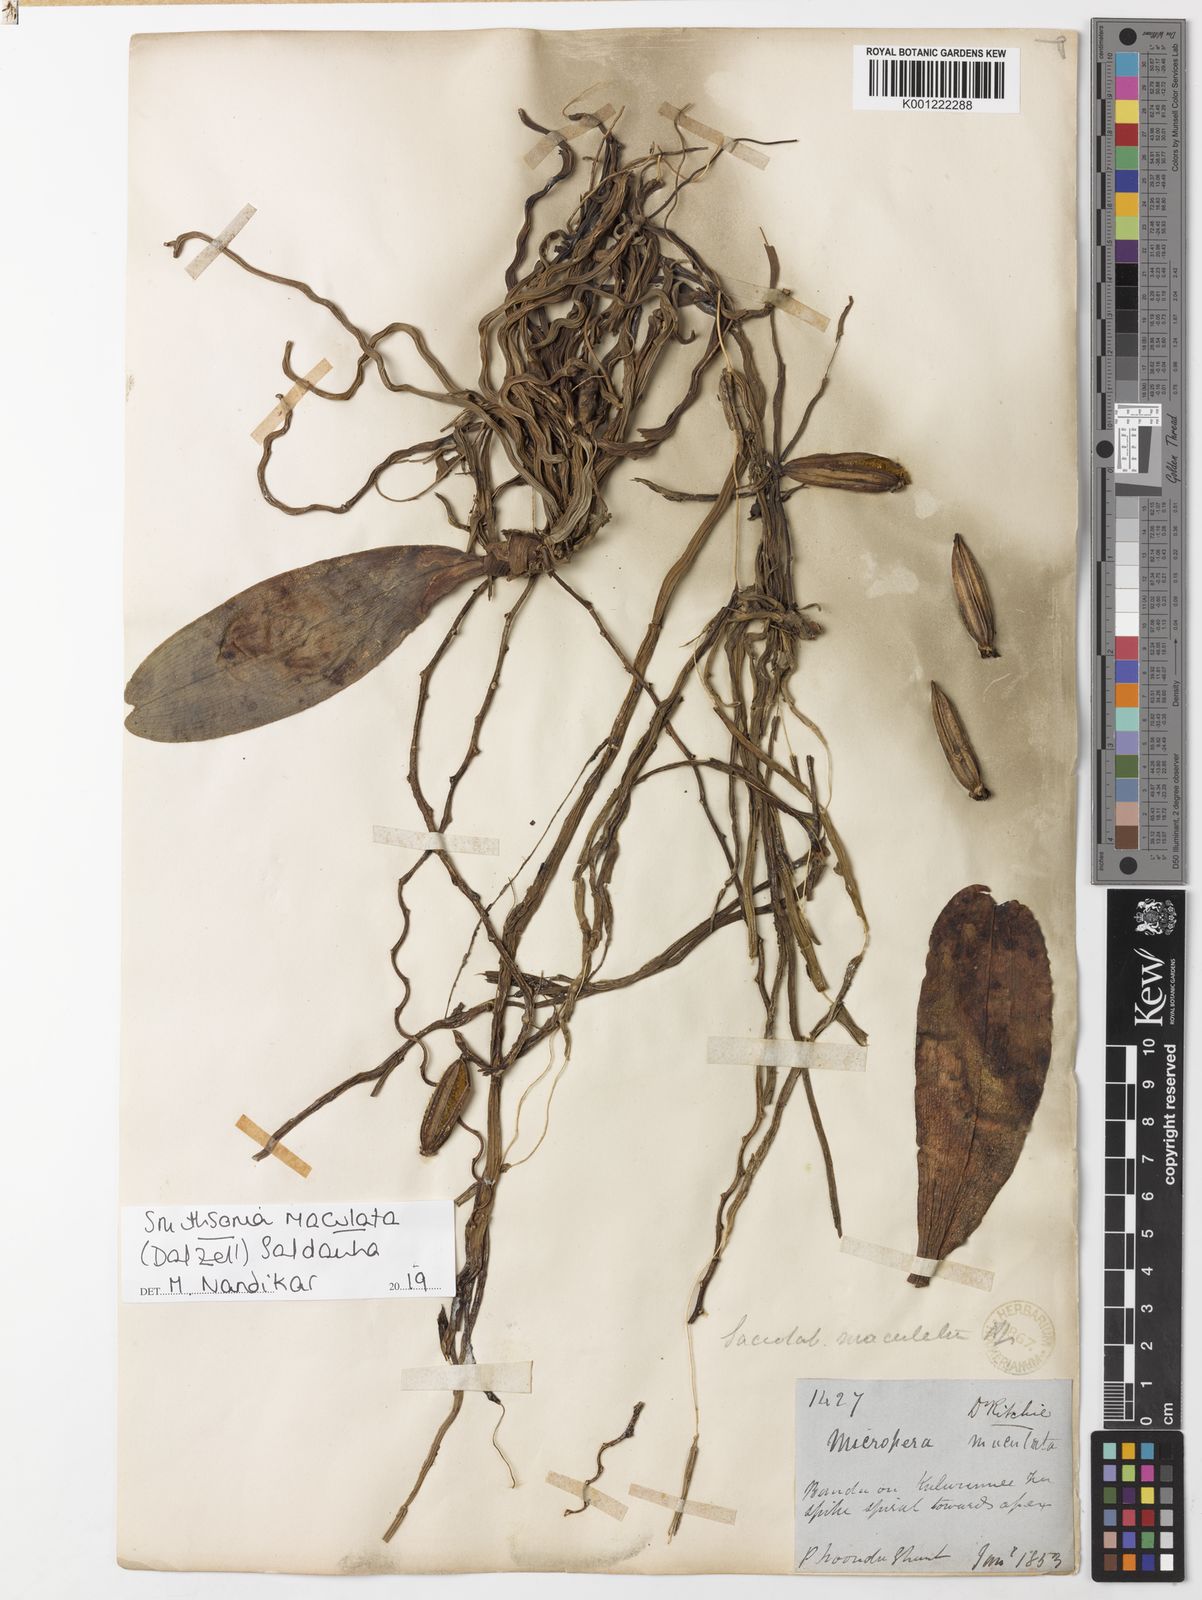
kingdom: Plantae
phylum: Tracheophyta
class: Liliopsida
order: Asparagales
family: Orchidaceae
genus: Smithsonia
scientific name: Smithsonia maculata
